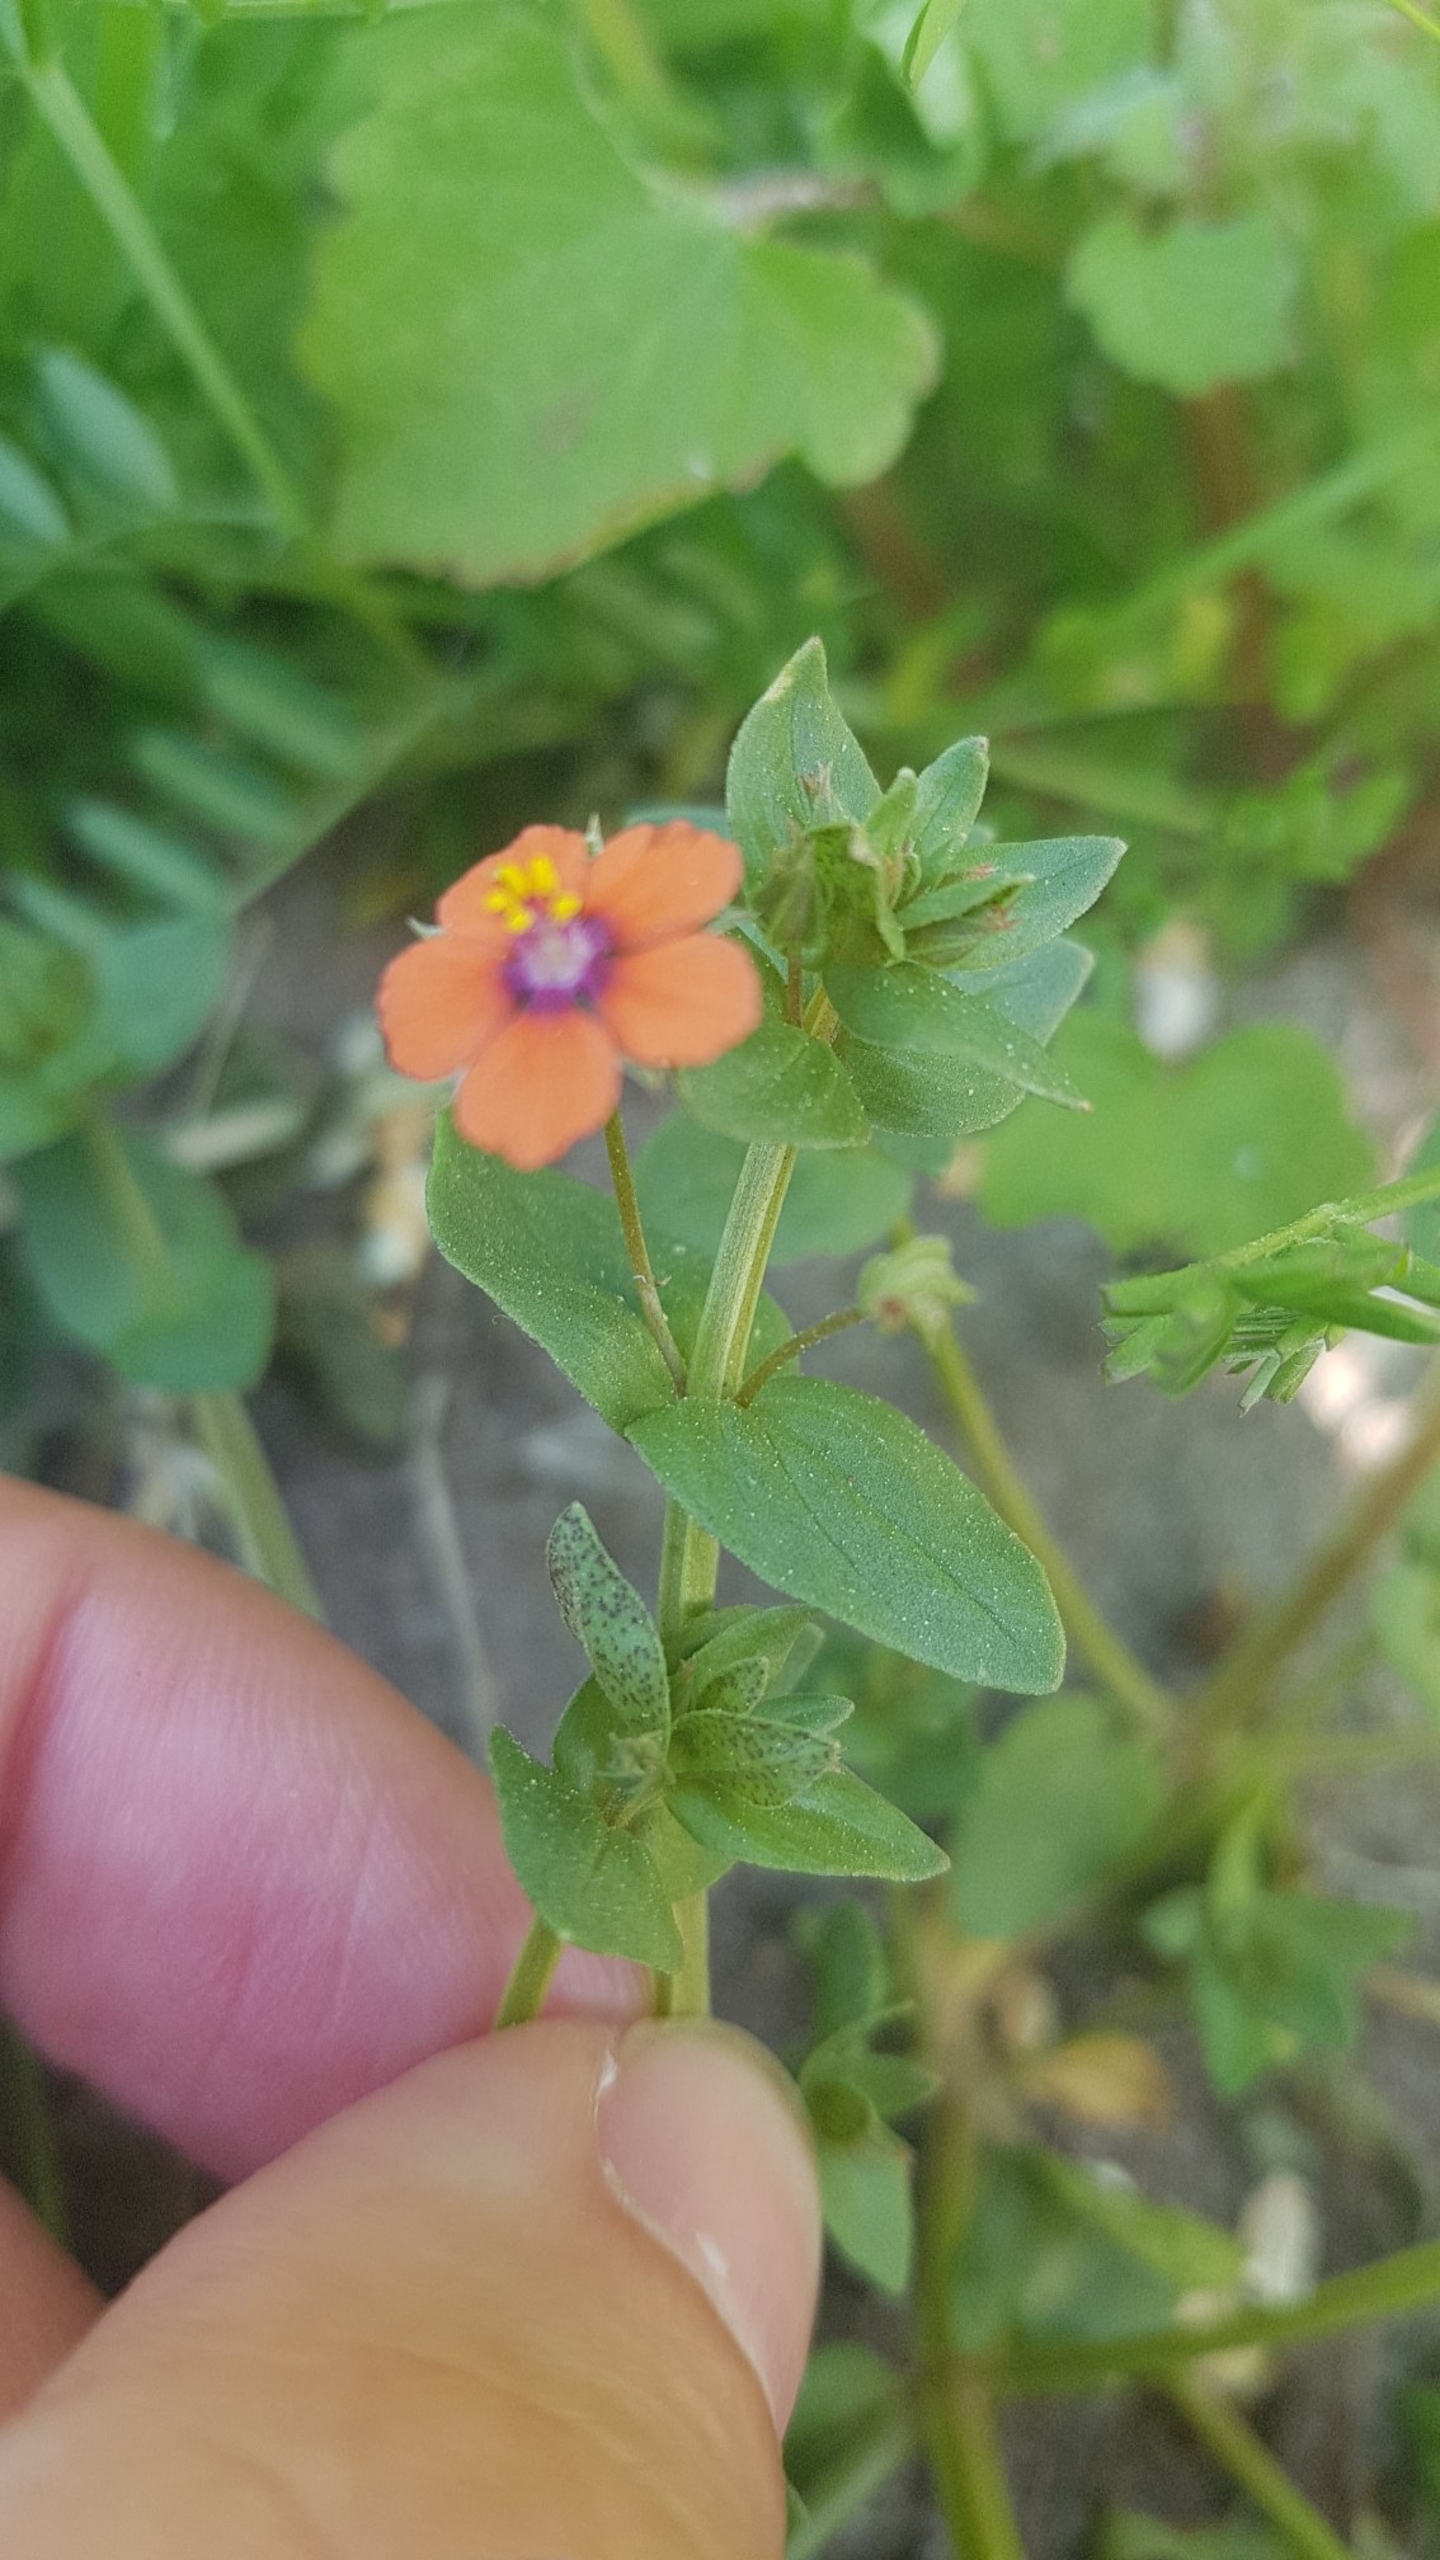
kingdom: Plantae
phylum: Tracheophyta
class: Magnoliopsida
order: Ericales
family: Primulaceae
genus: Lysimachia
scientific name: Lysimachia arvensis
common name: Rød arve
